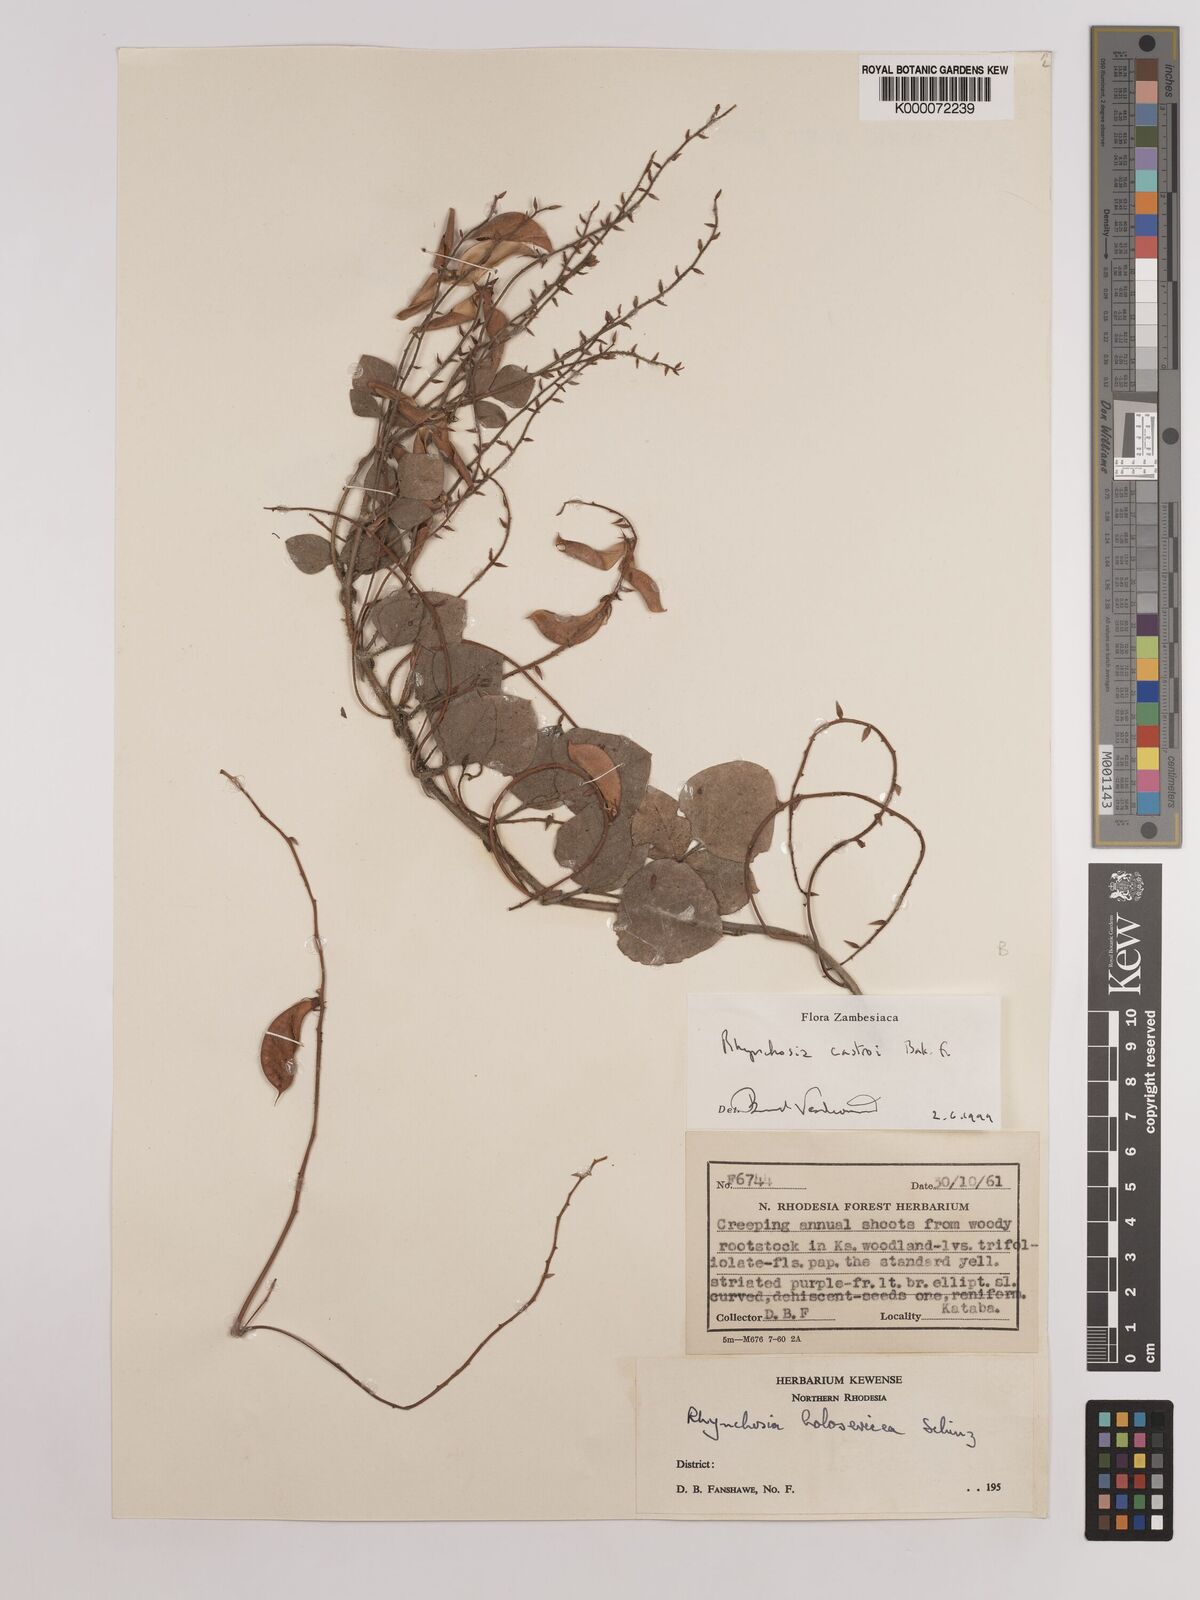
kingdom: Plantae
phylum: Tracheophyta
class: Magnoliopsida
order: Fabales
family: Fabaceae
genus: Rhynchosia
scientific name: Rhynchosia castroi
